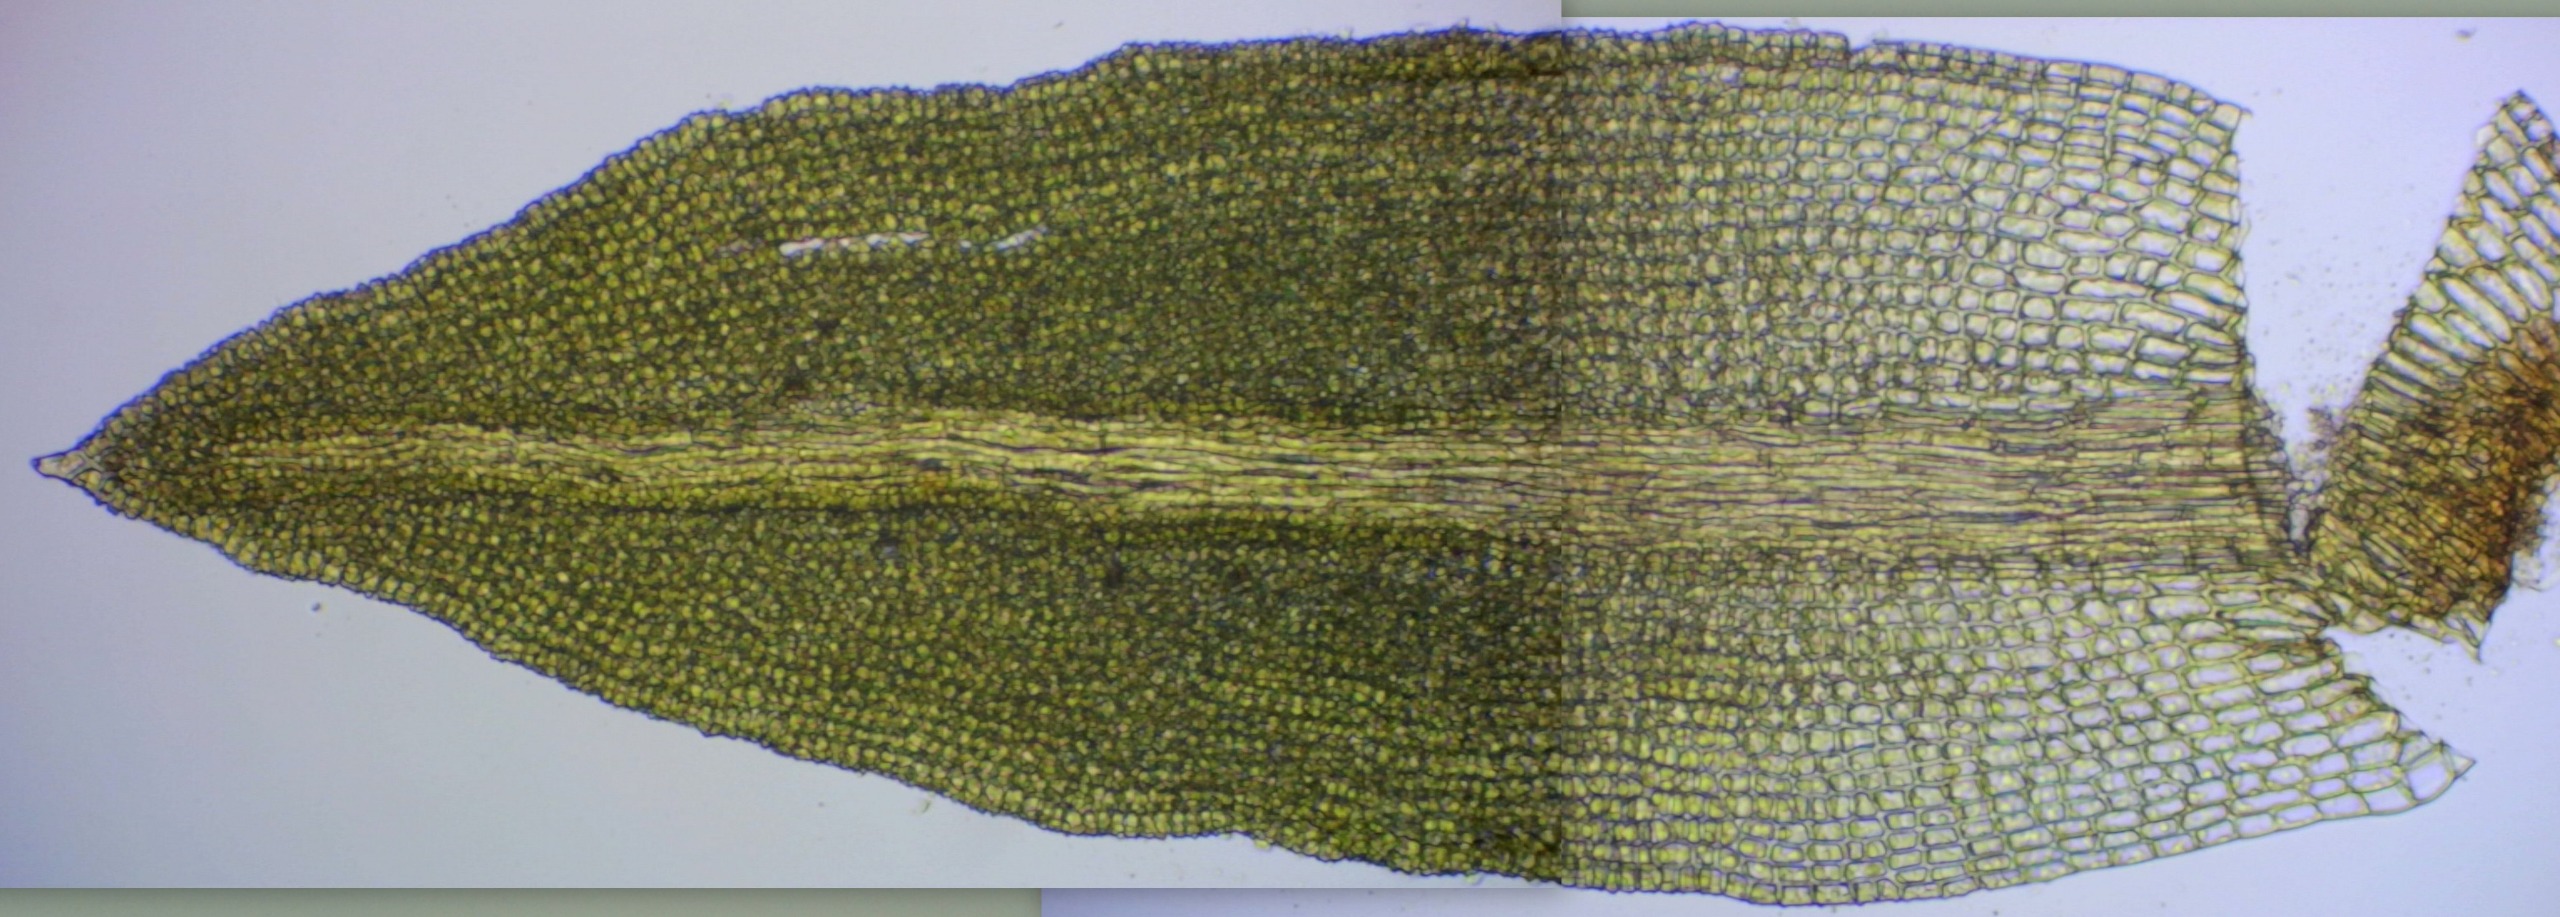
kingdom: Plantae
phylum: Bryophyta
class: Bryopsida
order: Pottiales
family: Pottiaceae
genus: Streblotrichum
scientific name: Streblotrichum convolutum
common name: Violet snohår
